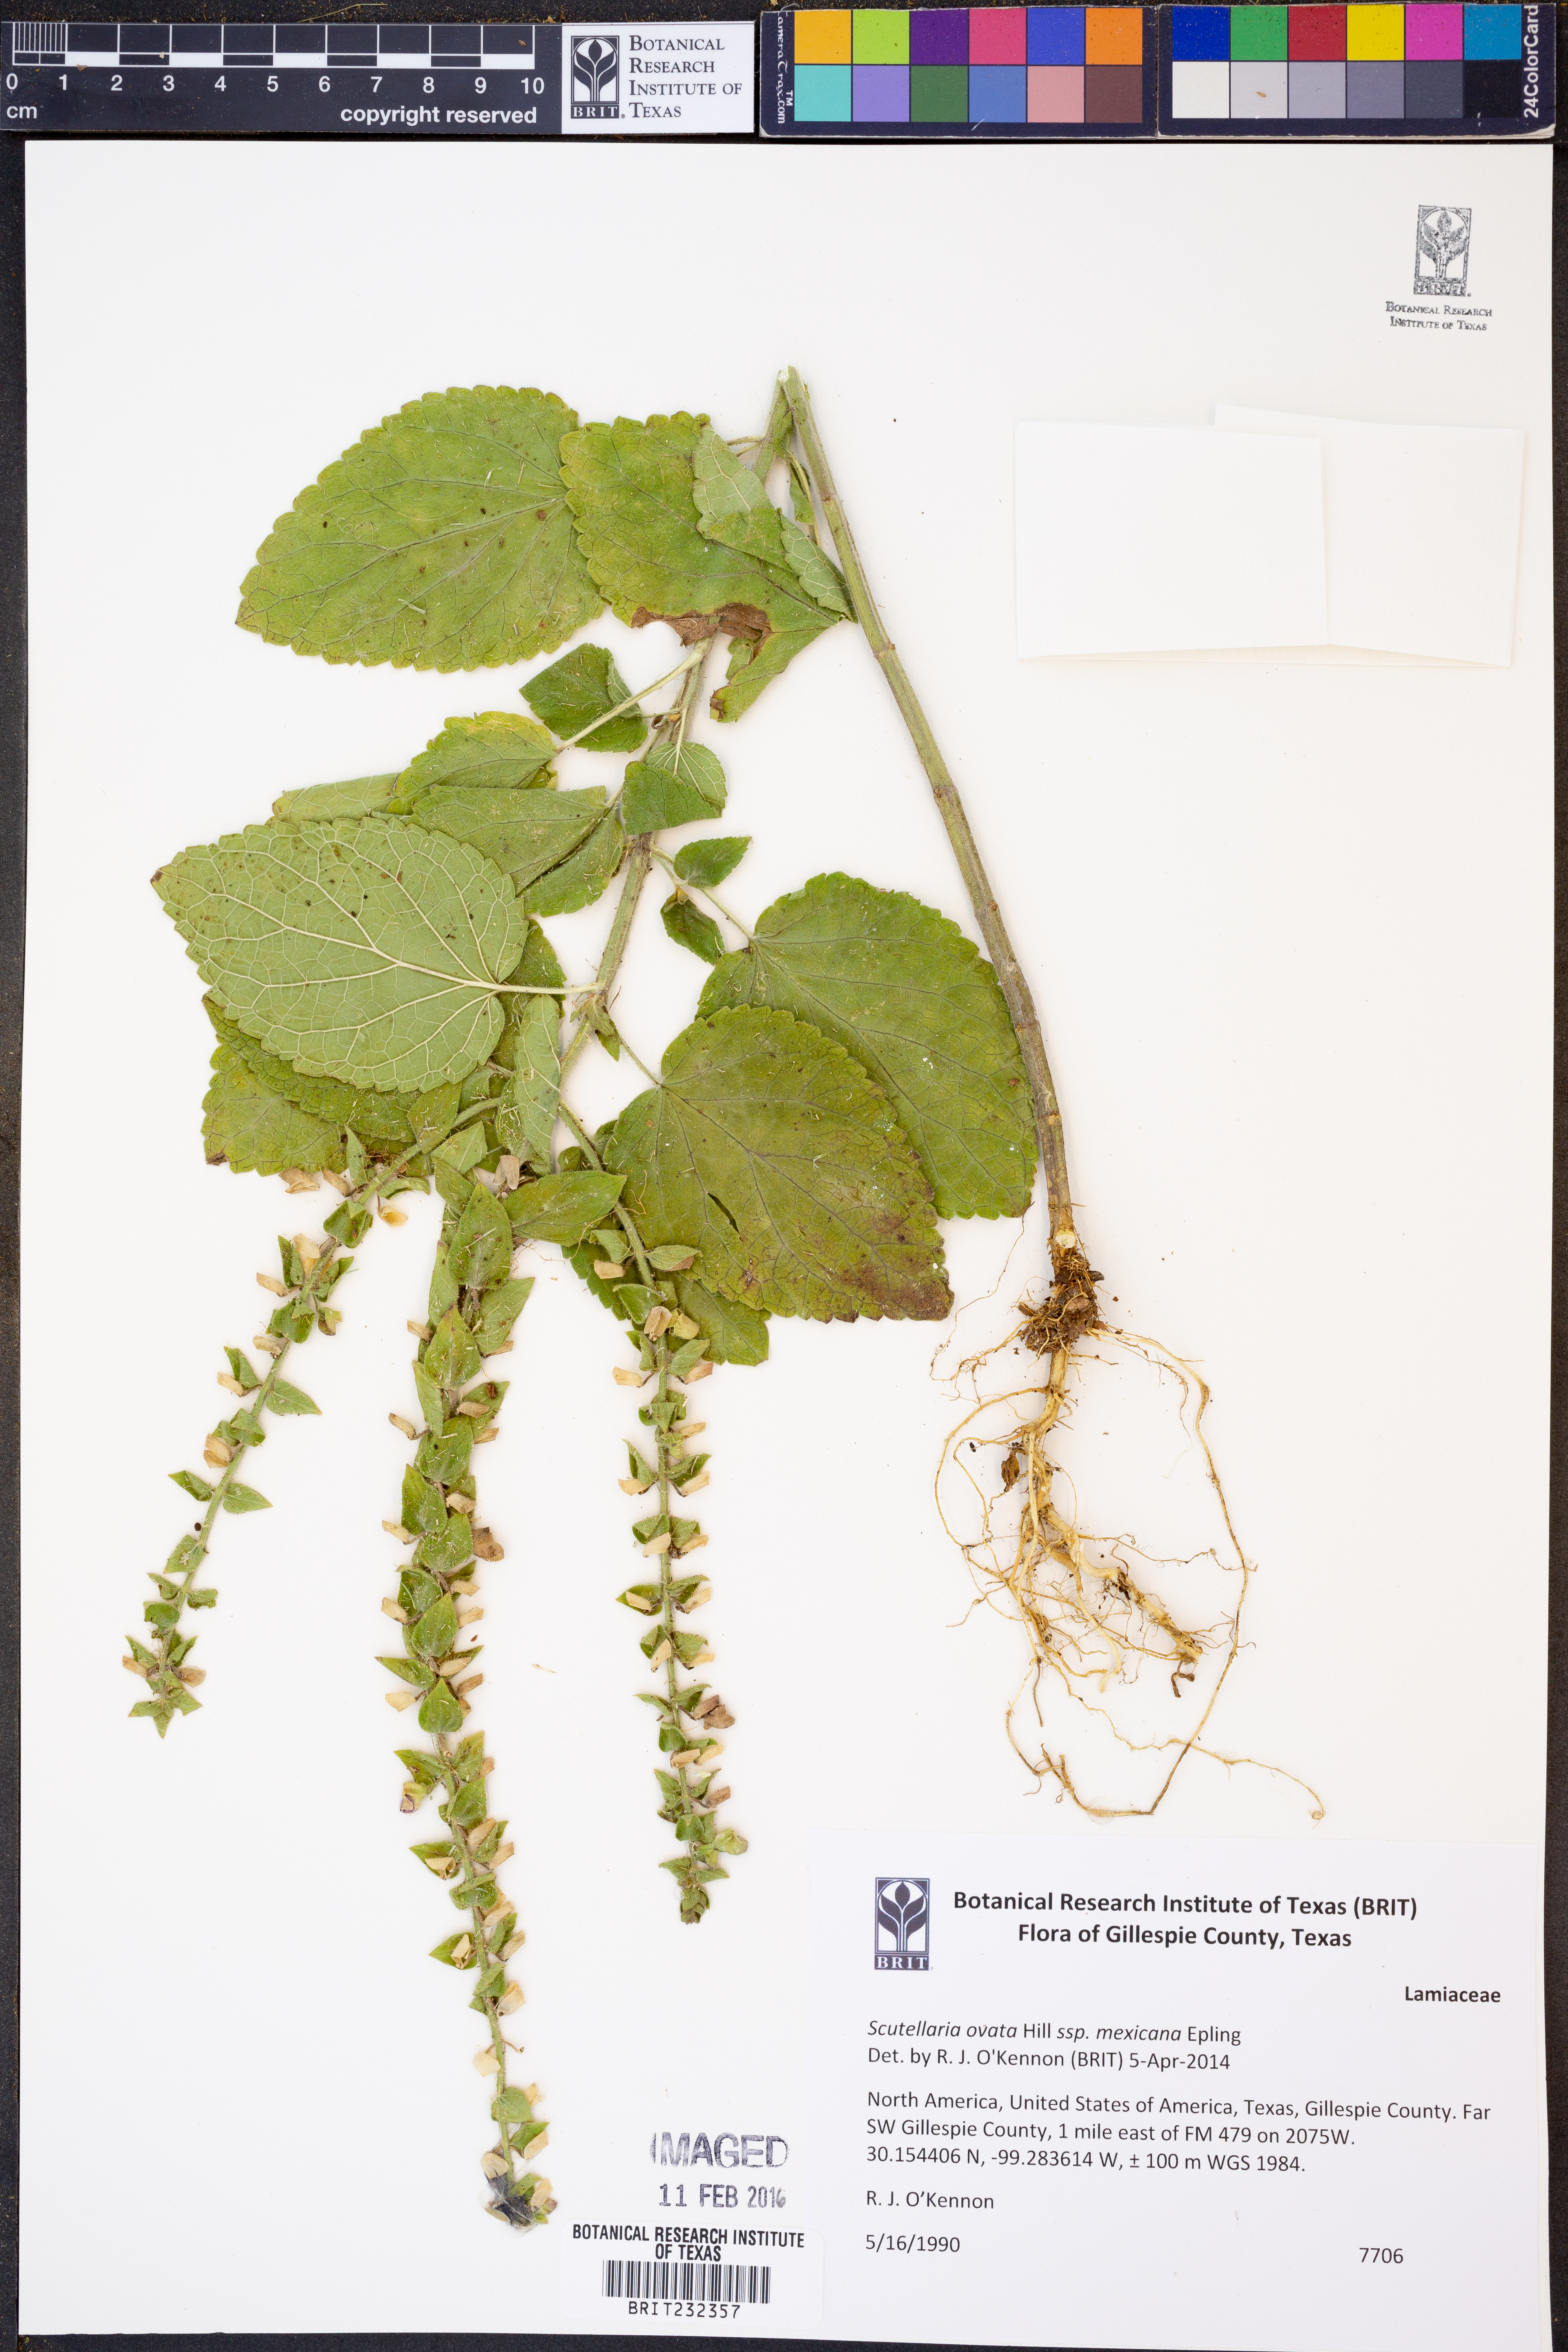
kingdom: Plantae
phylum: Tracheophyta
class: Magnoliopsida
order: Lamiales
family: Lamiaceae
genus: Scutellaria
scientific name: Scutellaria ovata
